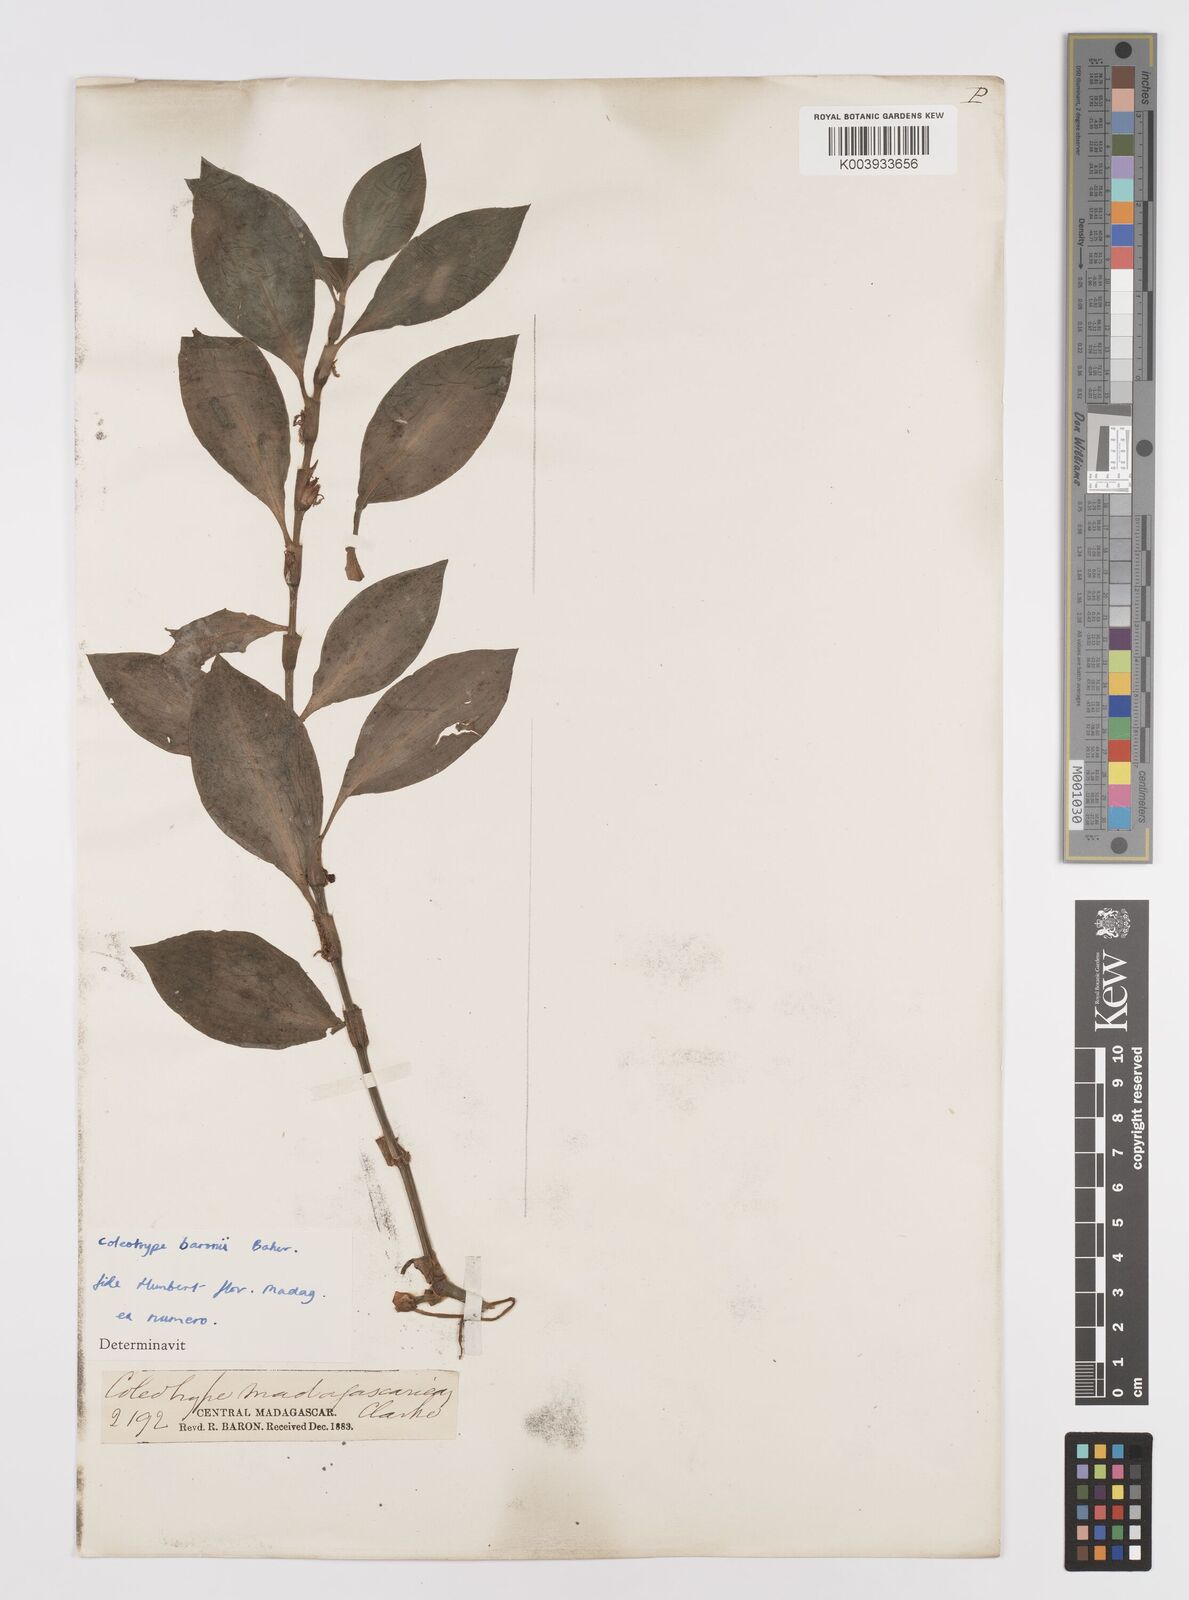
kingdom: Plantae
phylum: Tracheophyta
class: Liliopsida
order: Commelinales
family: Commelinaceae
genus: Coleotrype
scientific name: Coleotrype baronii
